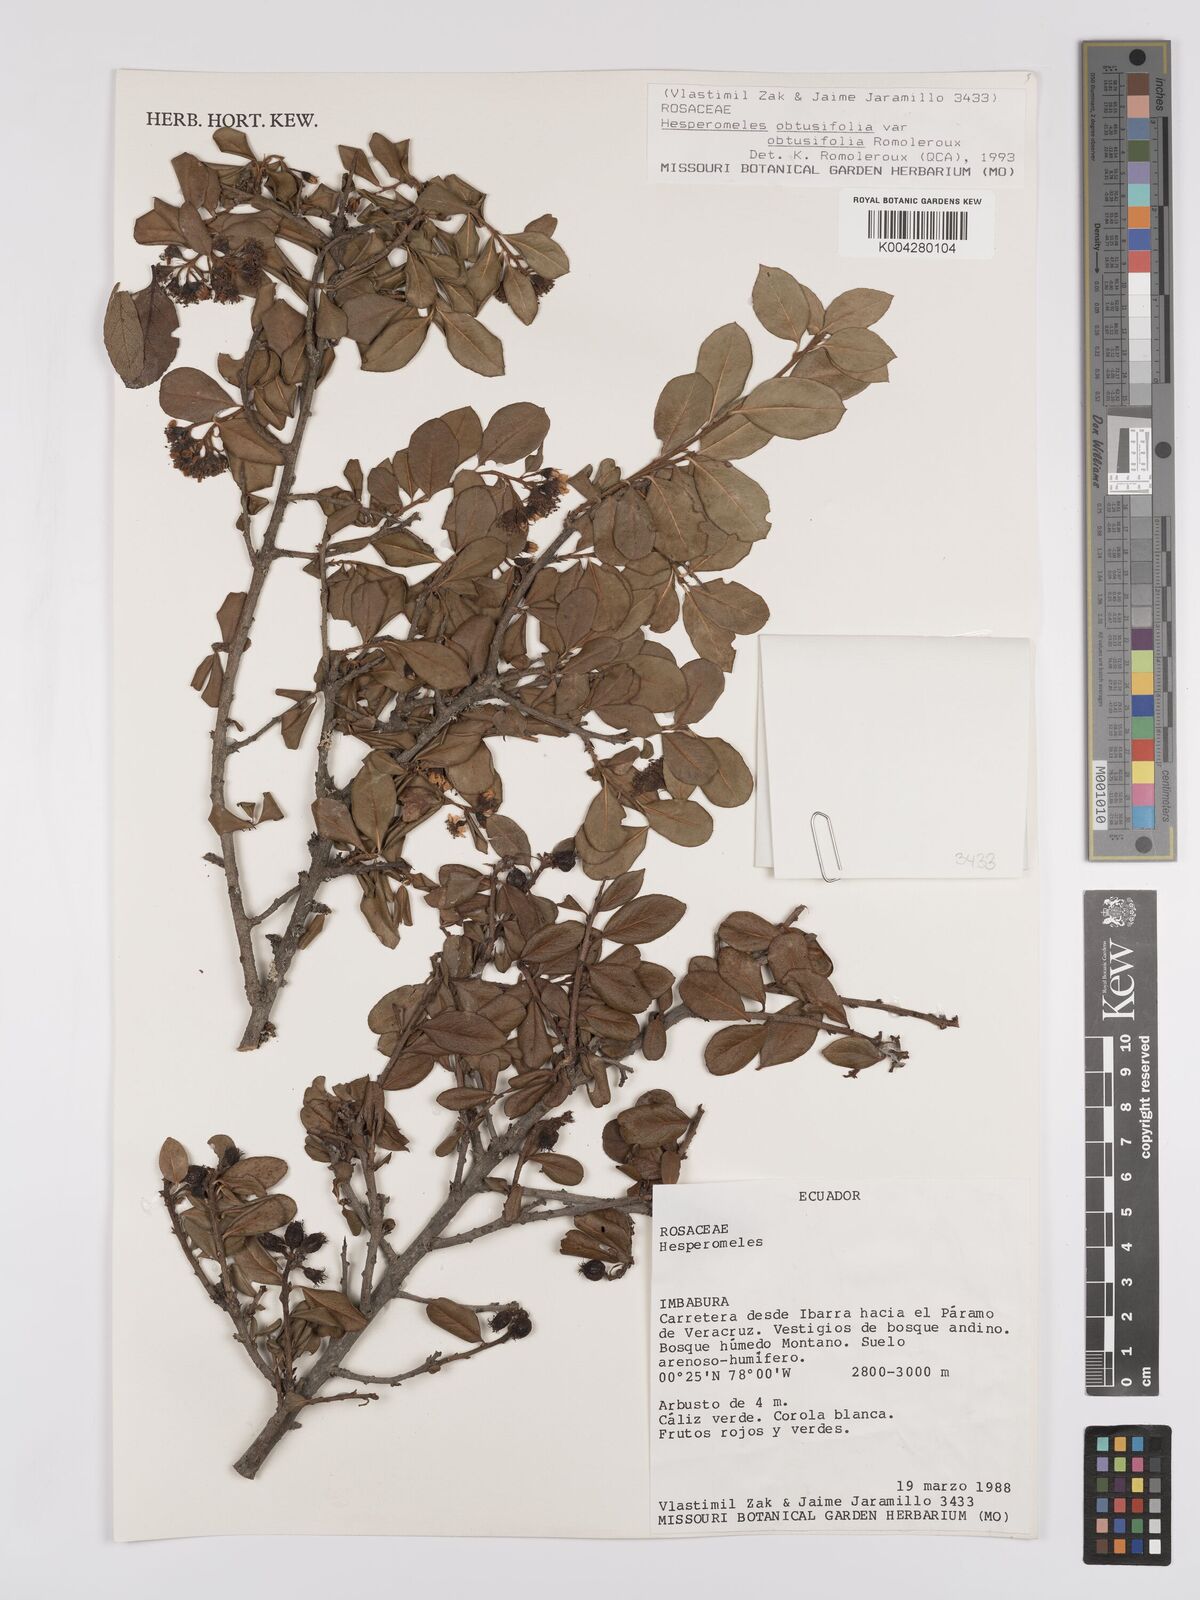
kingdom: Plantae
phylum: Tracheophyta
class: Magnoliopsida
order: Rosales
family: Rosaceae
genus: Hesperomeles
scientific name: Hesperomeles obtusifolia
